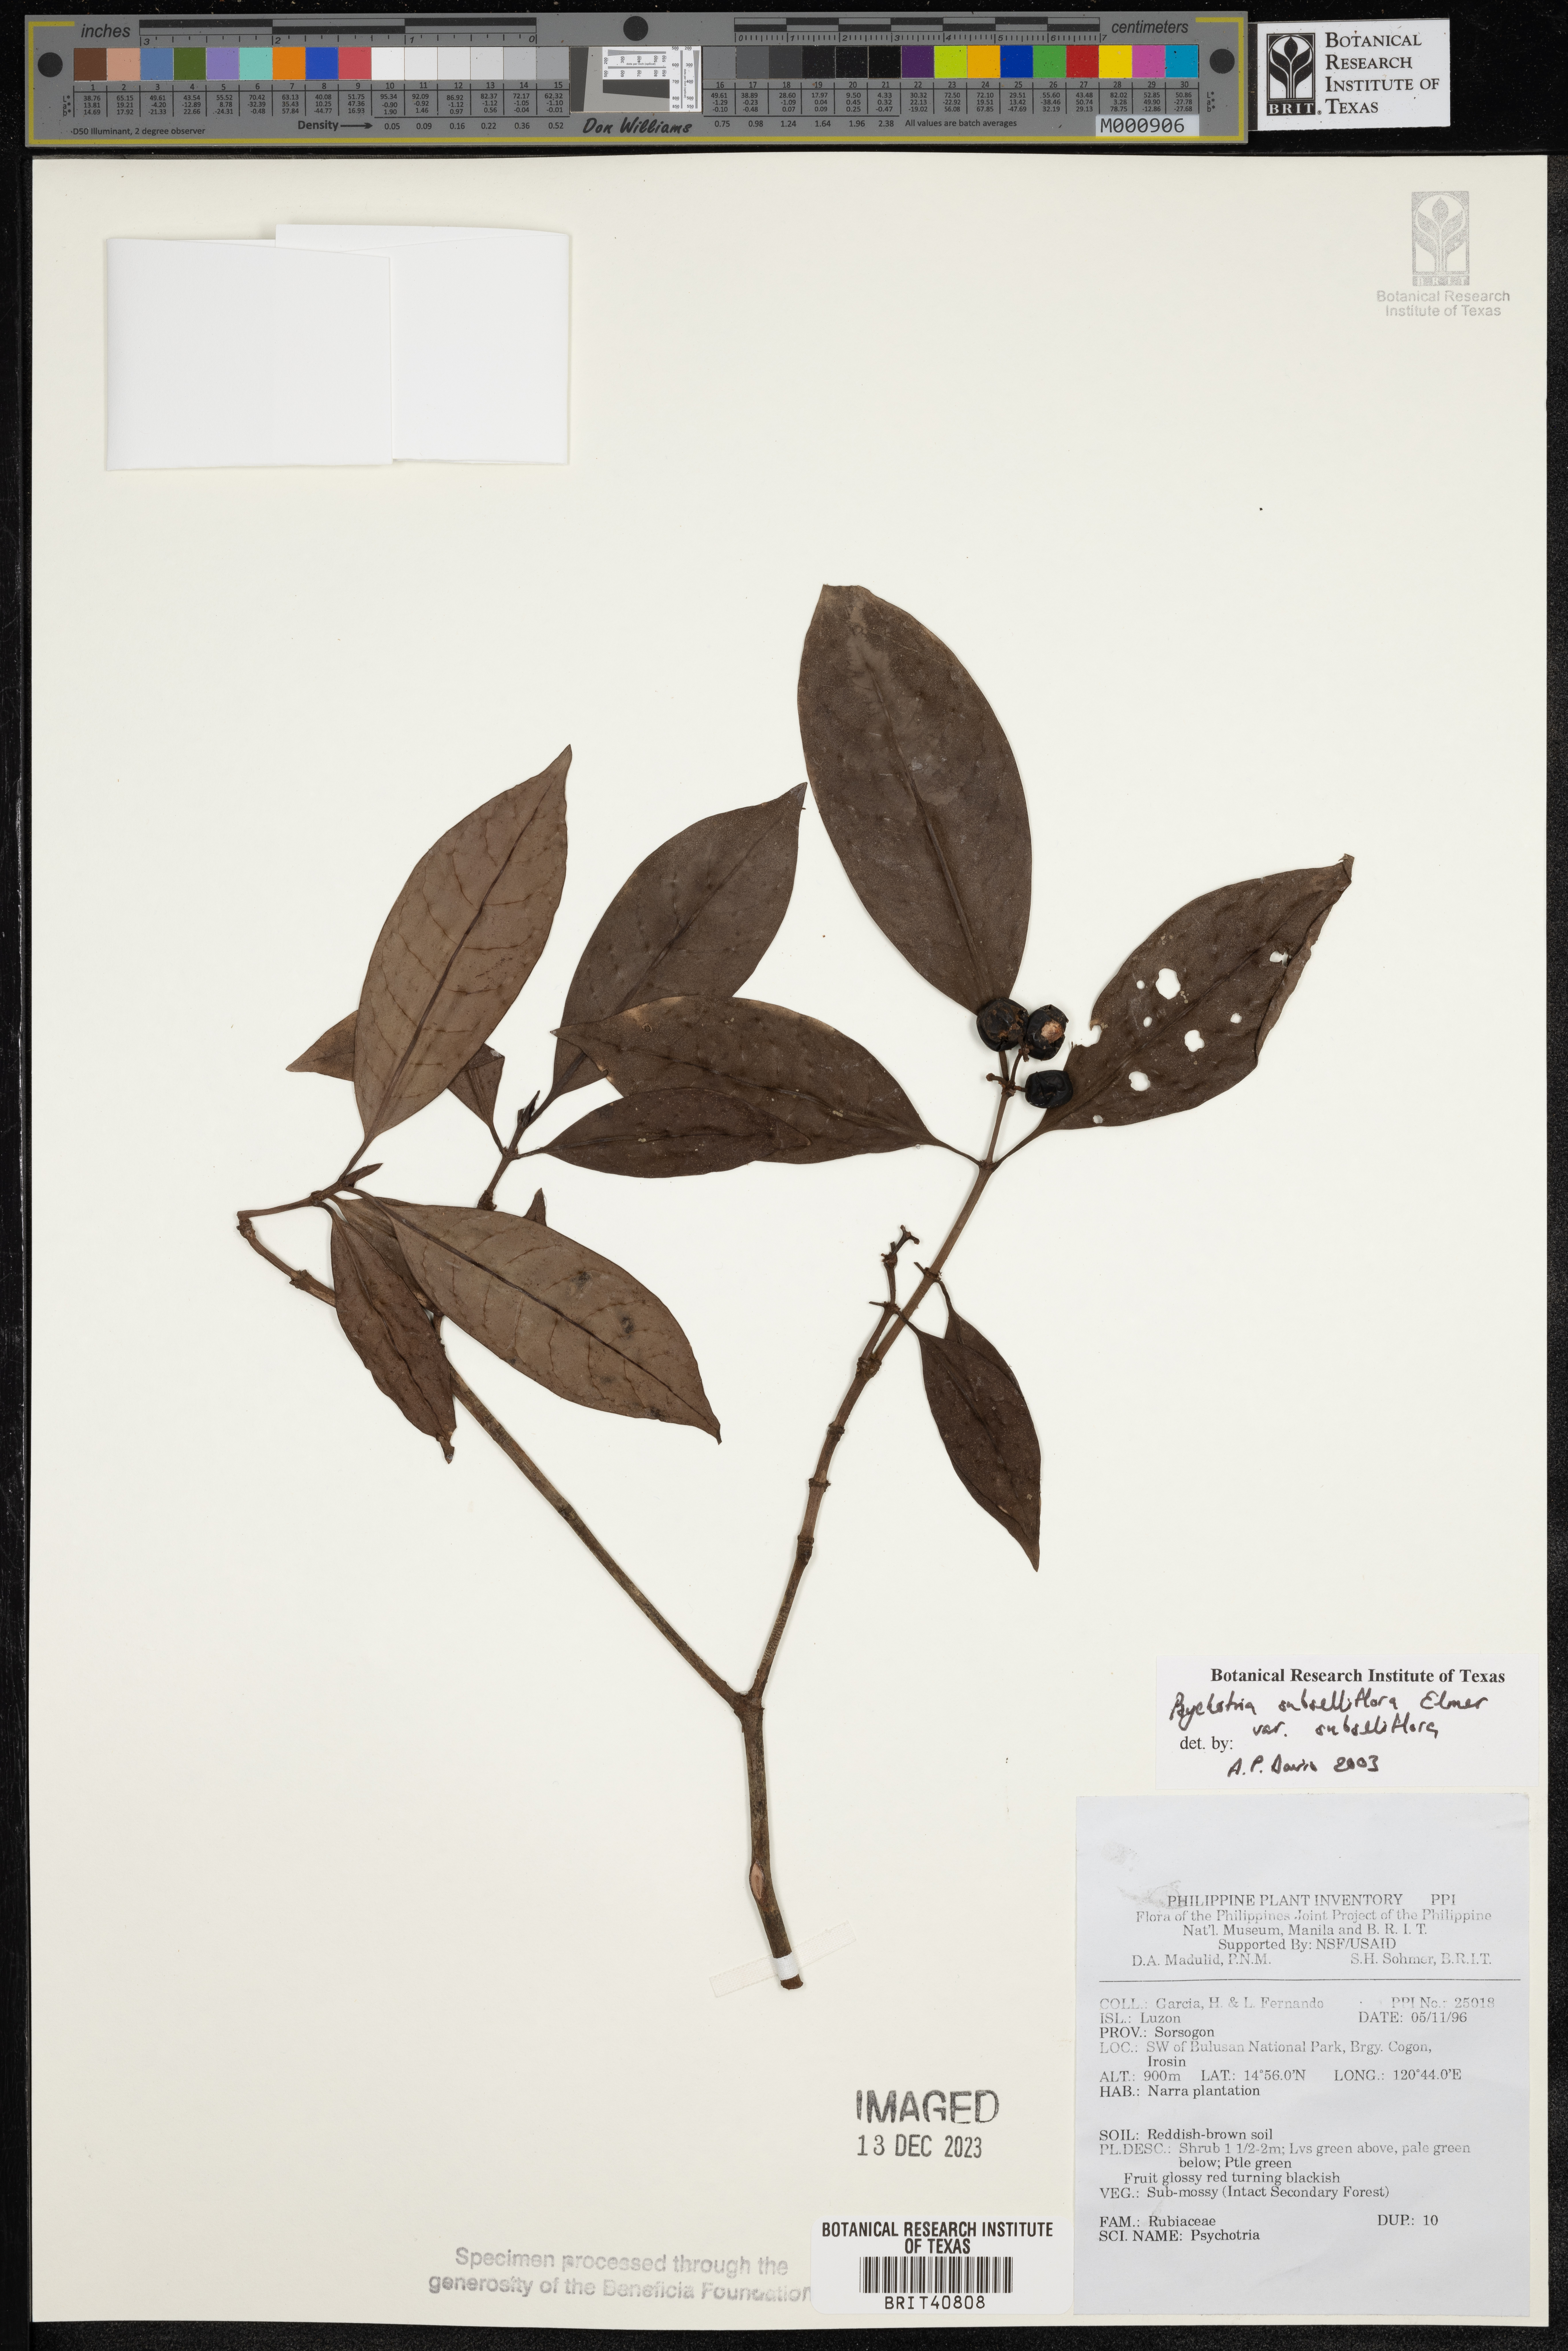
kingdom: Plantae
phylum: Tracheophyta
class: Magnoliopsida
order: Gentianales
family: Rubiaceae
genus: Psychotria
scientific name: Psychotria subsessiliflora
